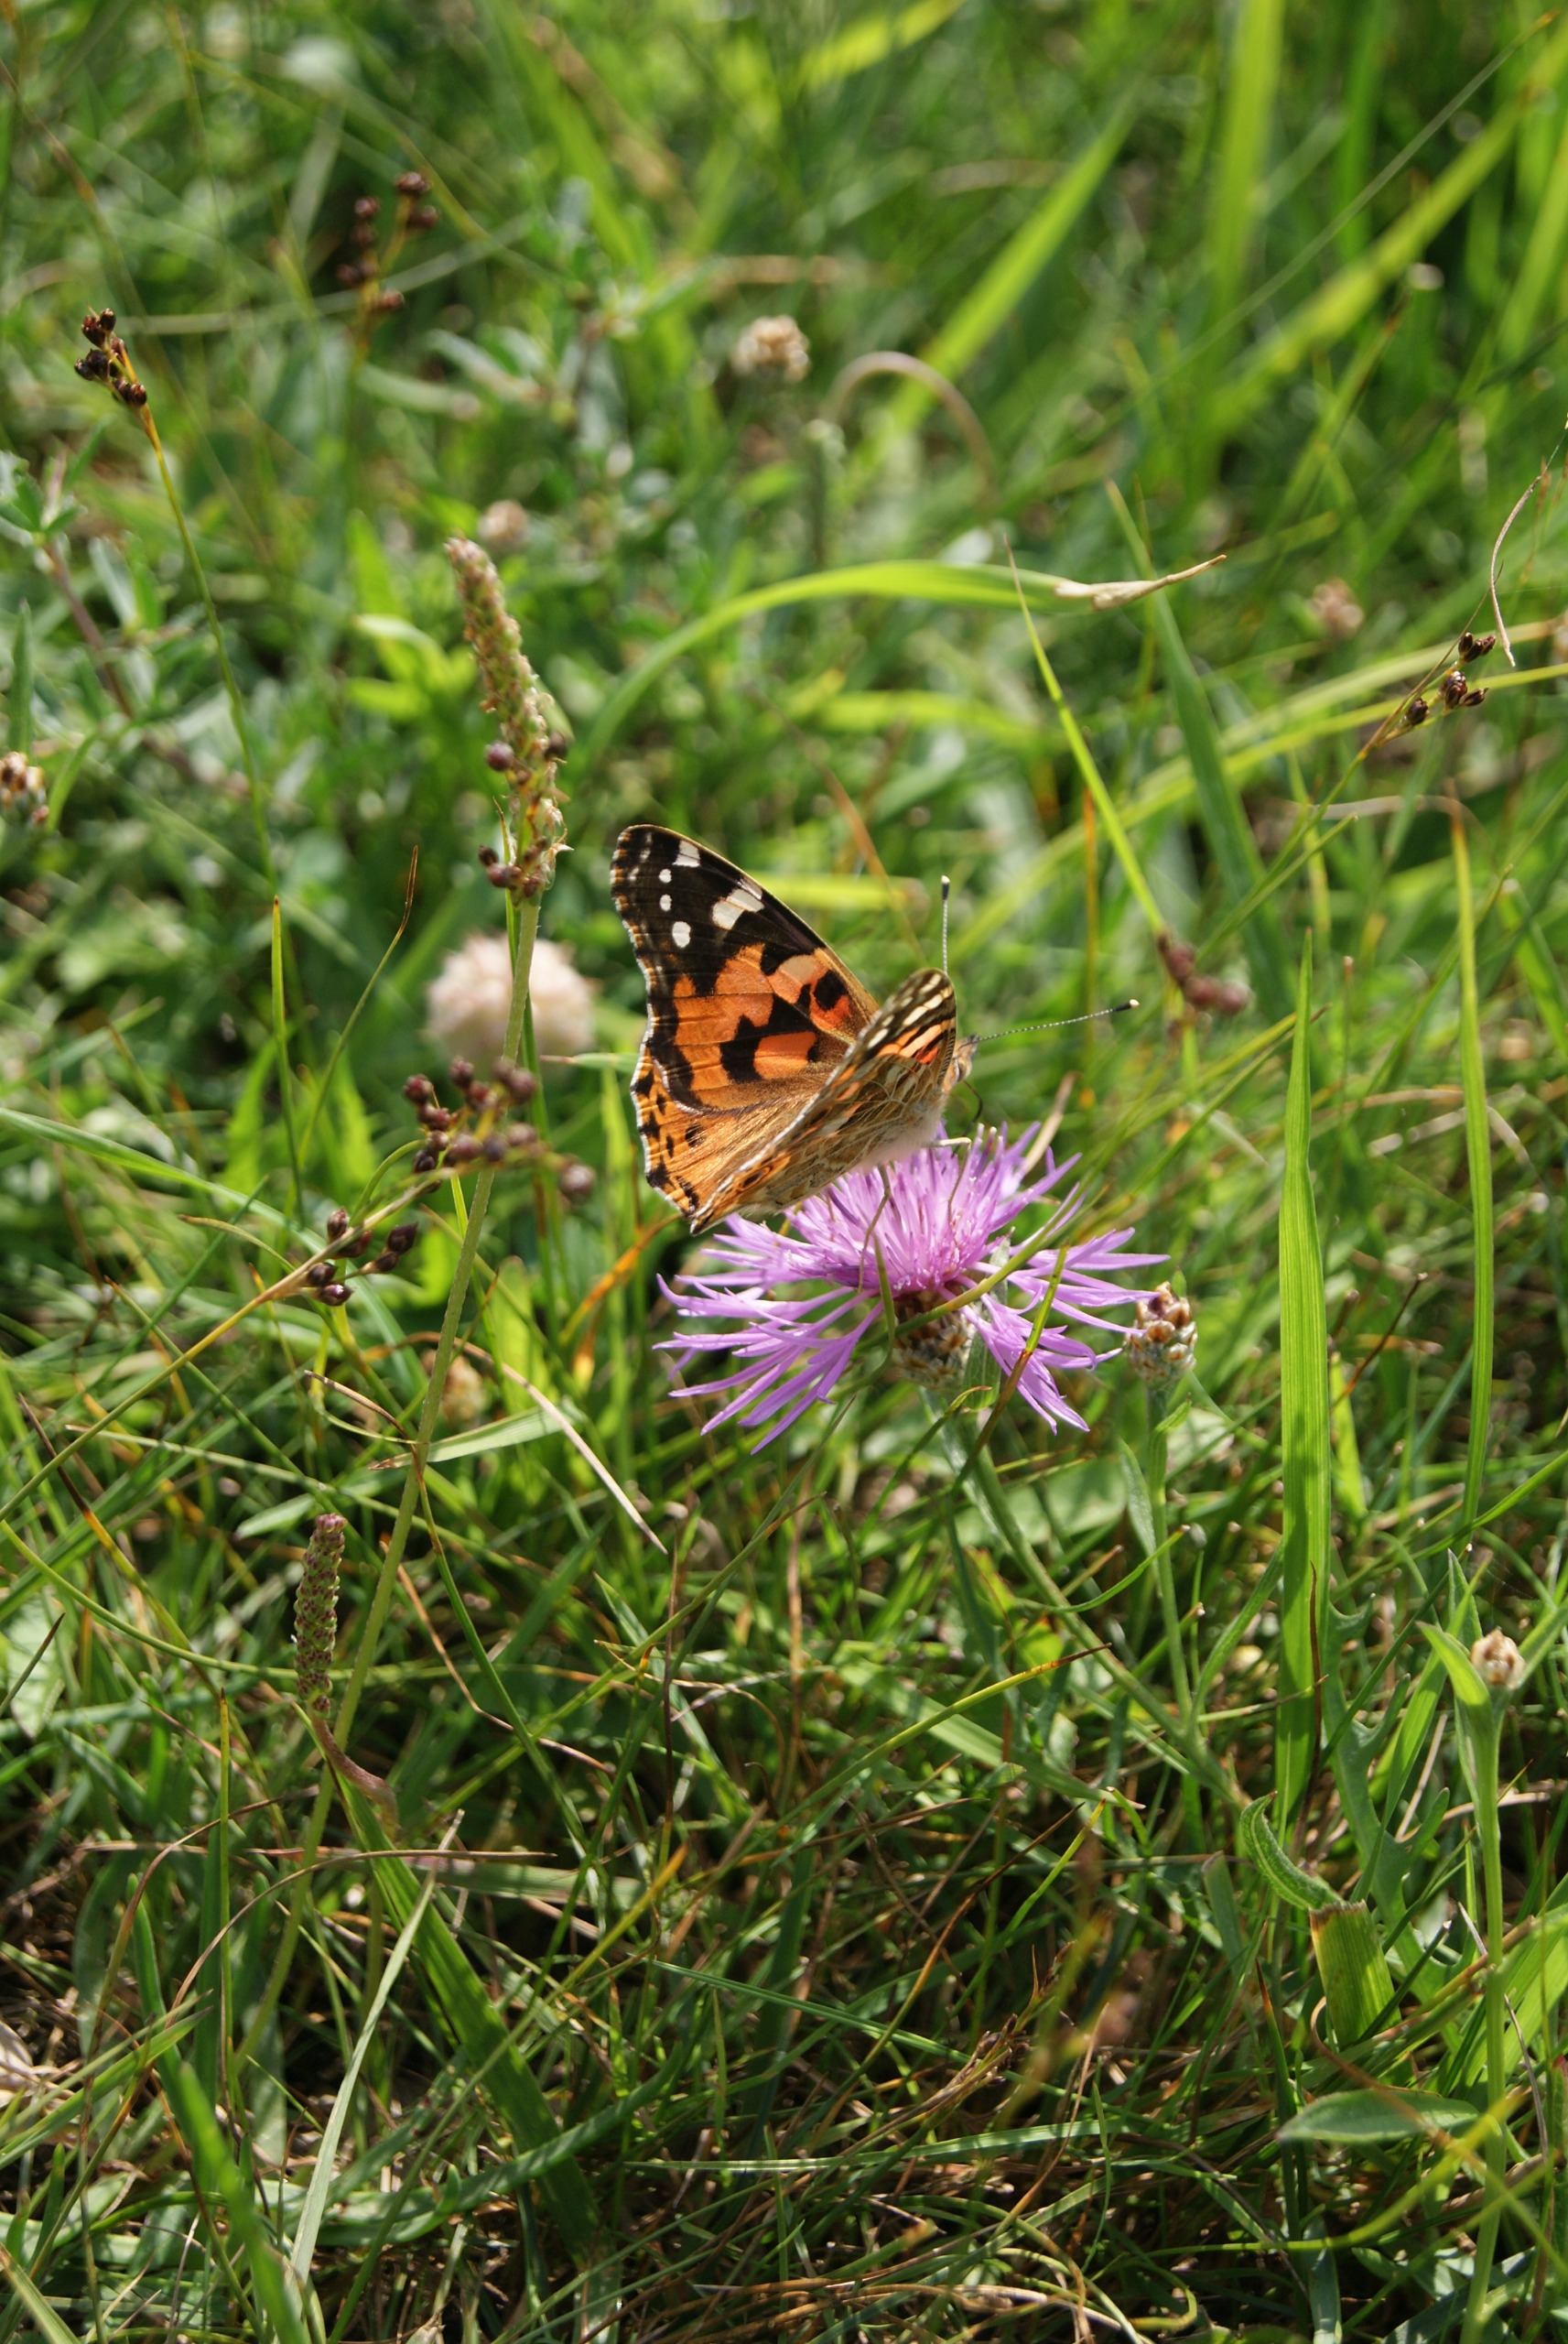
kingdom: Animalia
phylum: Arthropoda
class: Insecta
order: Lepidoptera
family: Nymphalidae
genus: Vanessa
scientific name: Vanessa cardui
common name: Tidselsommerfugl
